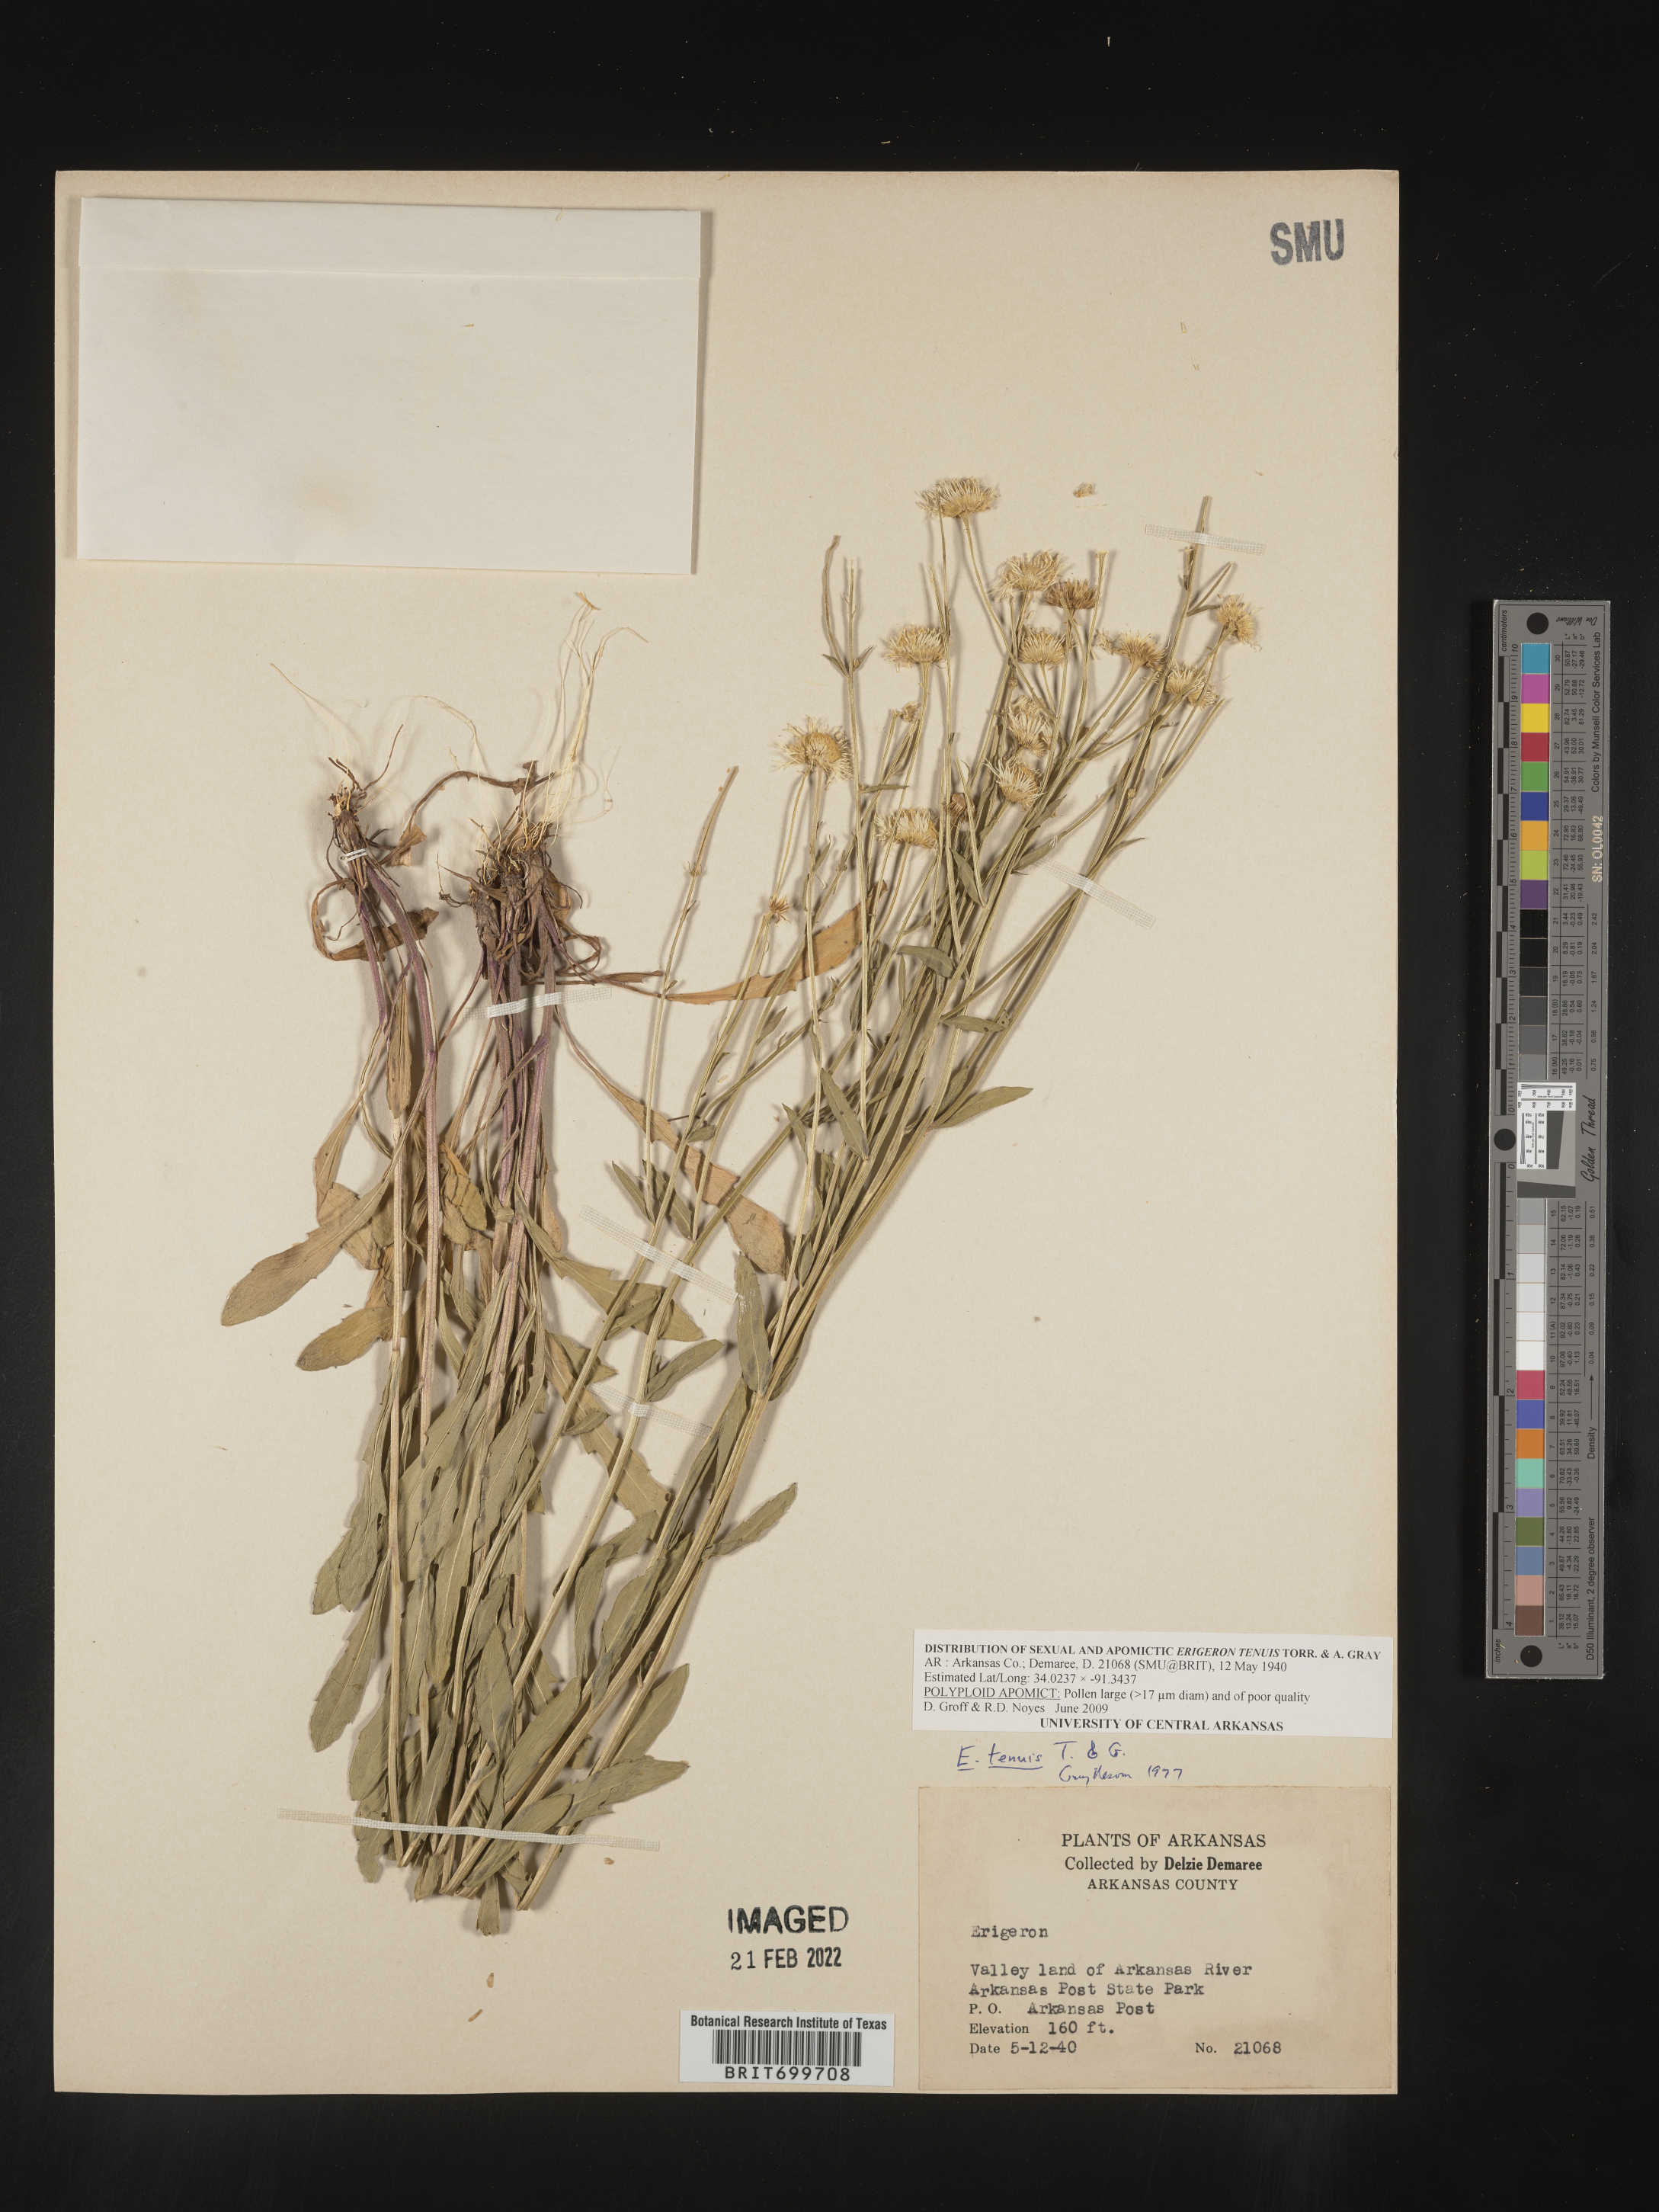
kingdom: Plantae
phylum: Tracheophyta
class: Magnoliopsida
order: Asterales
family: Asteraceae
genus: Erigeron
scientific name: Erigeron tenuis
